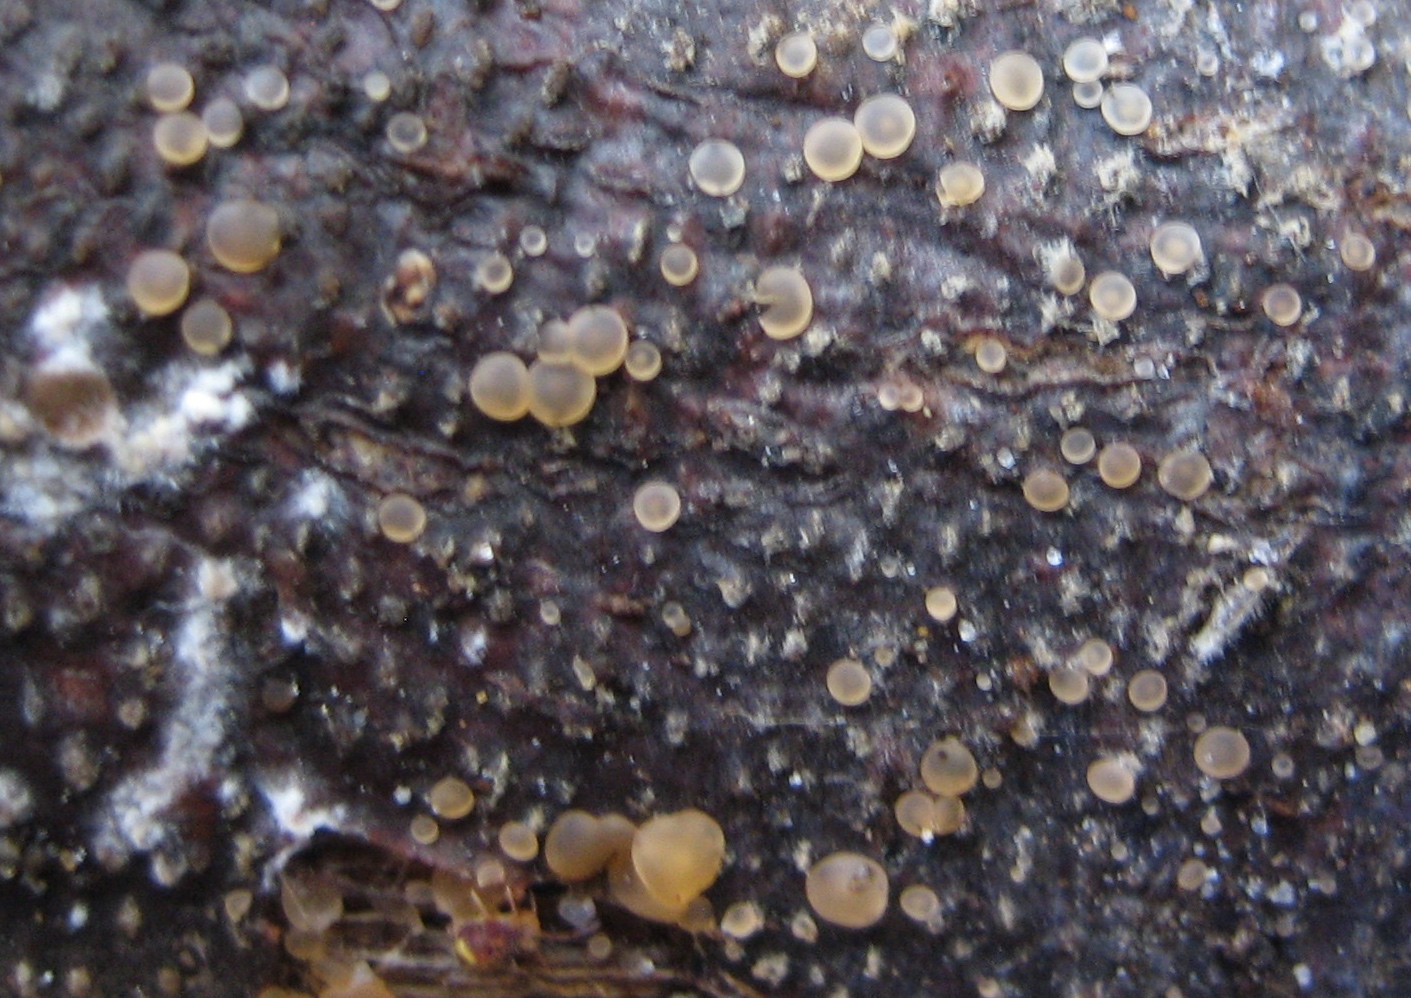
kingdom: Fungi
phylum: Ascomycota
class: Orbiliomycetes
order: Orbiliales
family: Orbiliaceae
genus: Orbilia
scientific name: Orbilia
